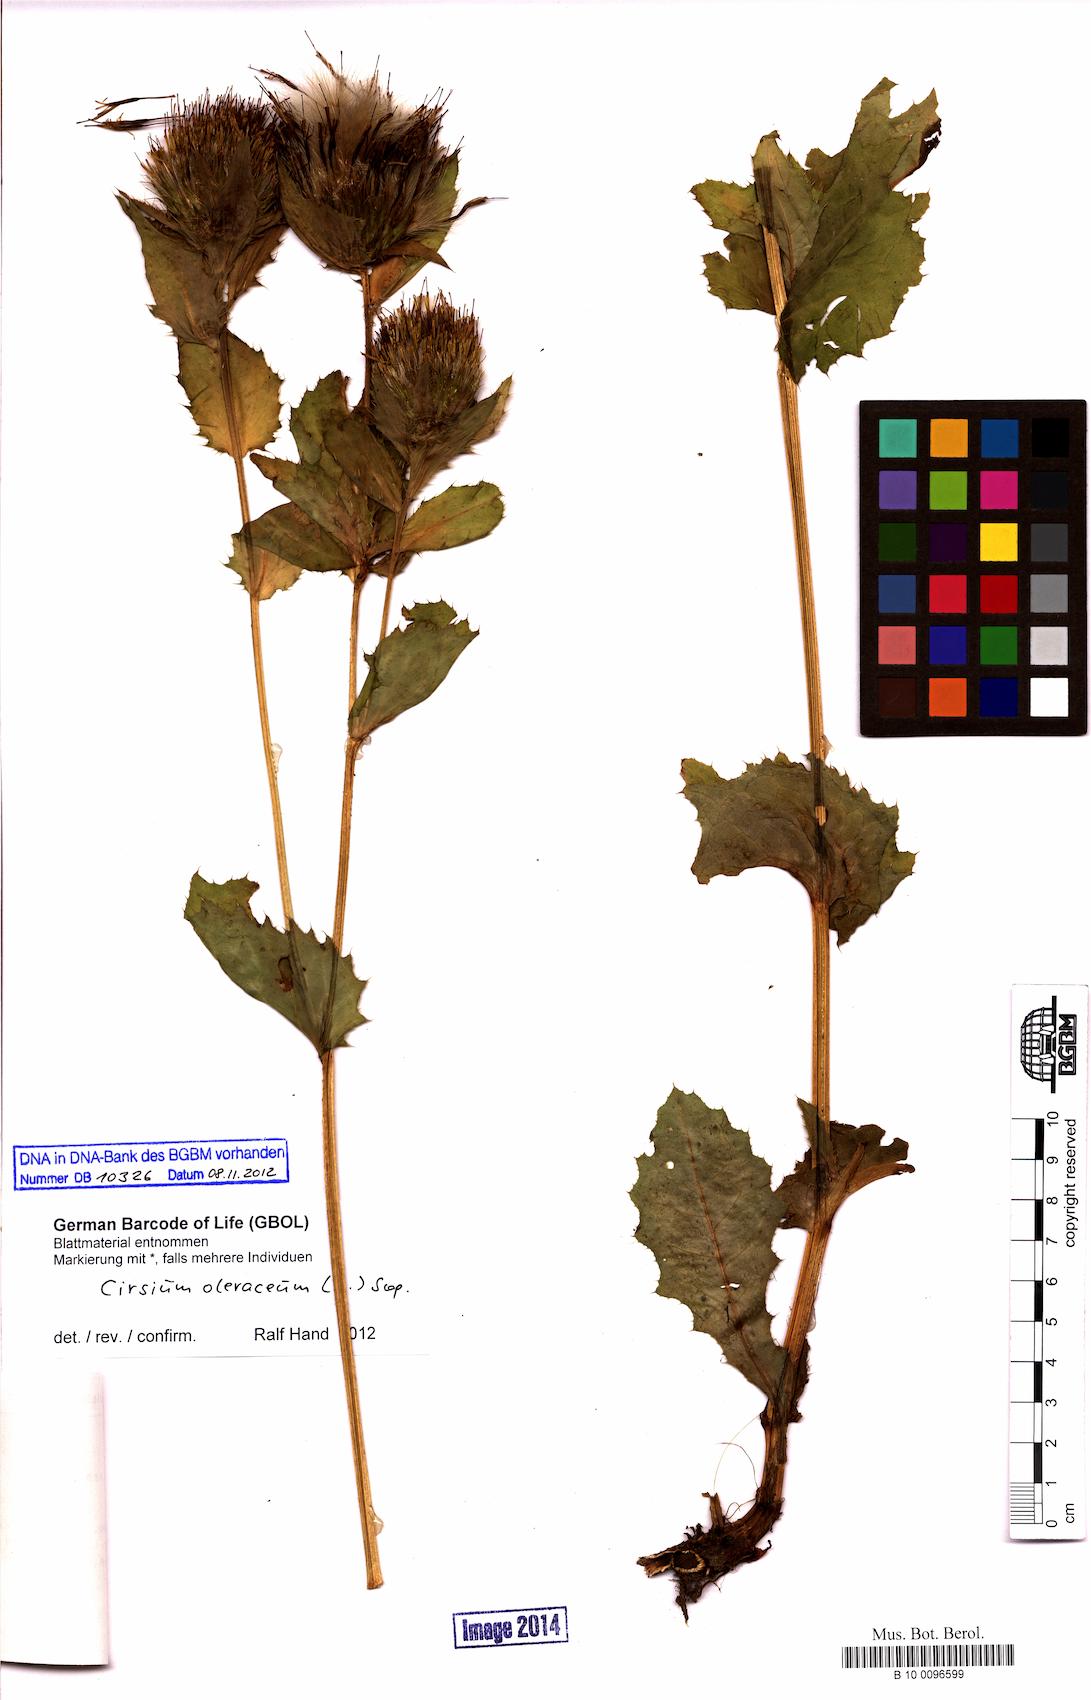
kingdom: Plantae
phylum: Tracheophyta
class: Magnoliopsida
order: Asterales
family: Asteraceae
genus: Cirsium
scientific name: Cirsium oleraceum
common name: Cabbage thistle
